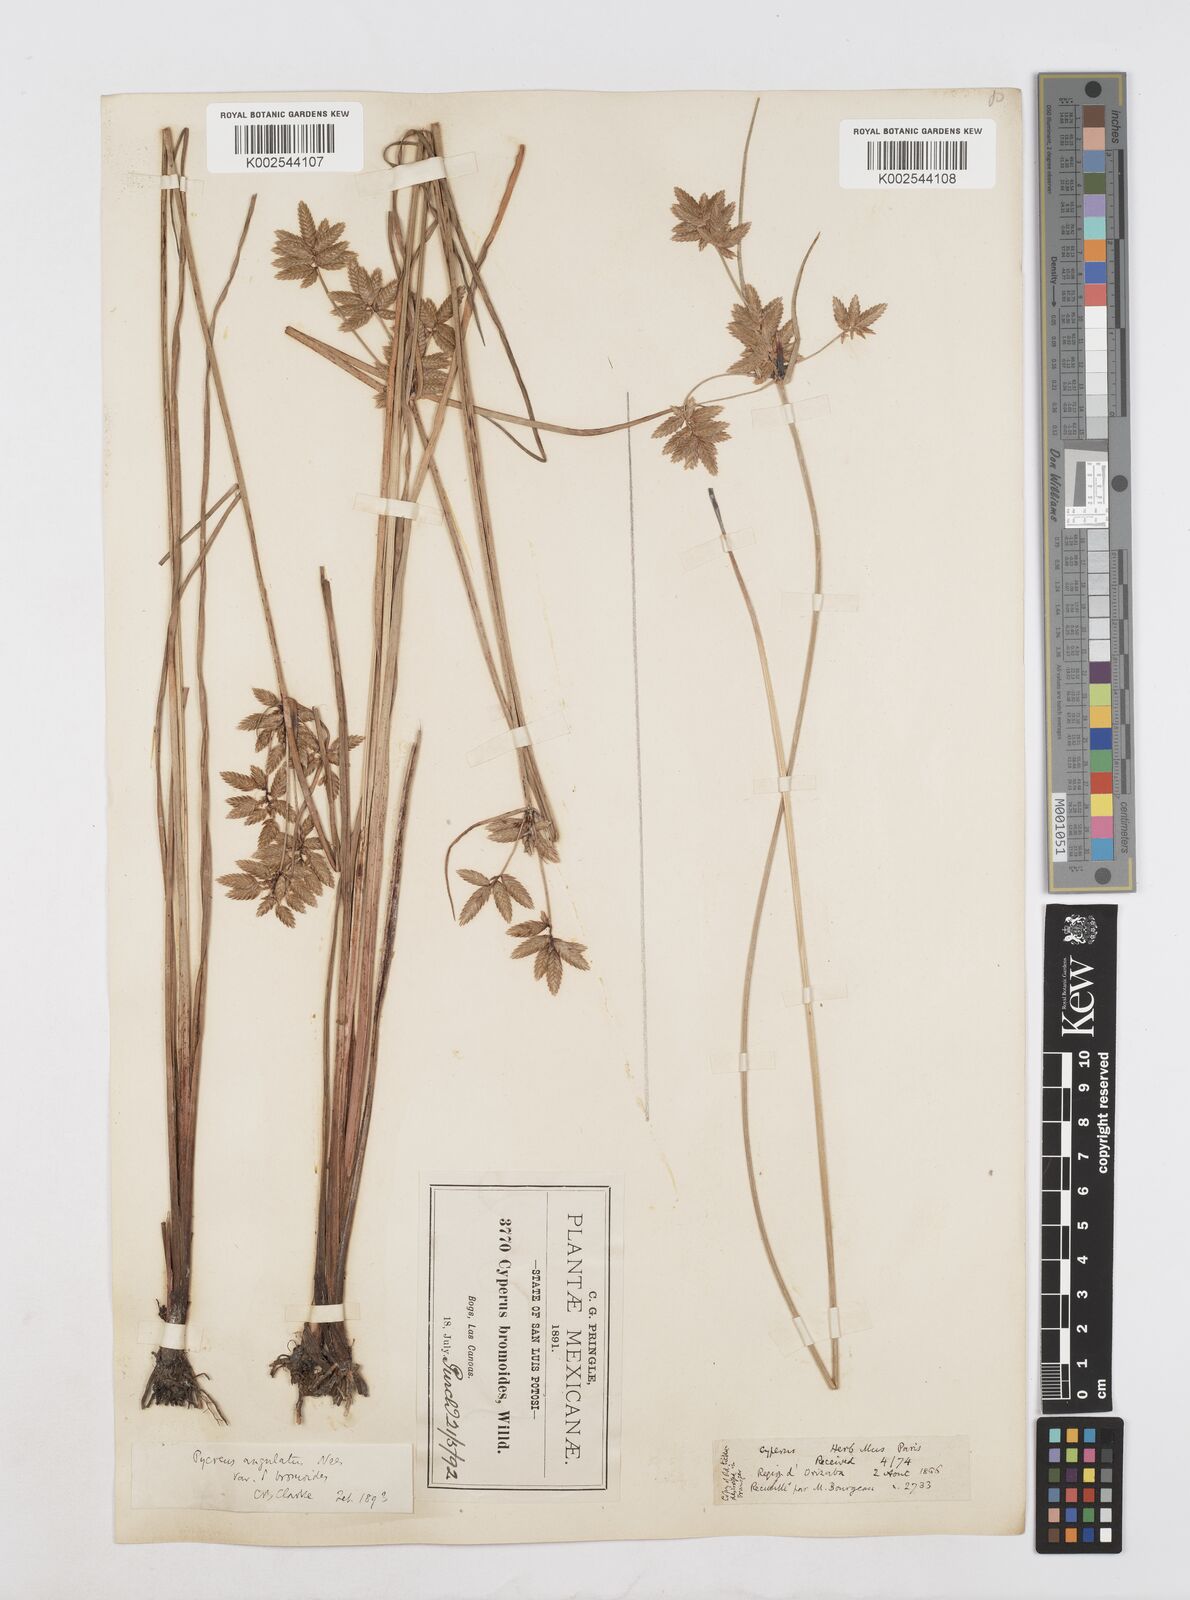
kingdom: Plantae
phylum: Tracheophyta
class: Liliopsida
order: Poales
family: Cyperaceae
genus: Cyperus
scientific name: Cyperus unioloides
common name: Uniola flatsedge
